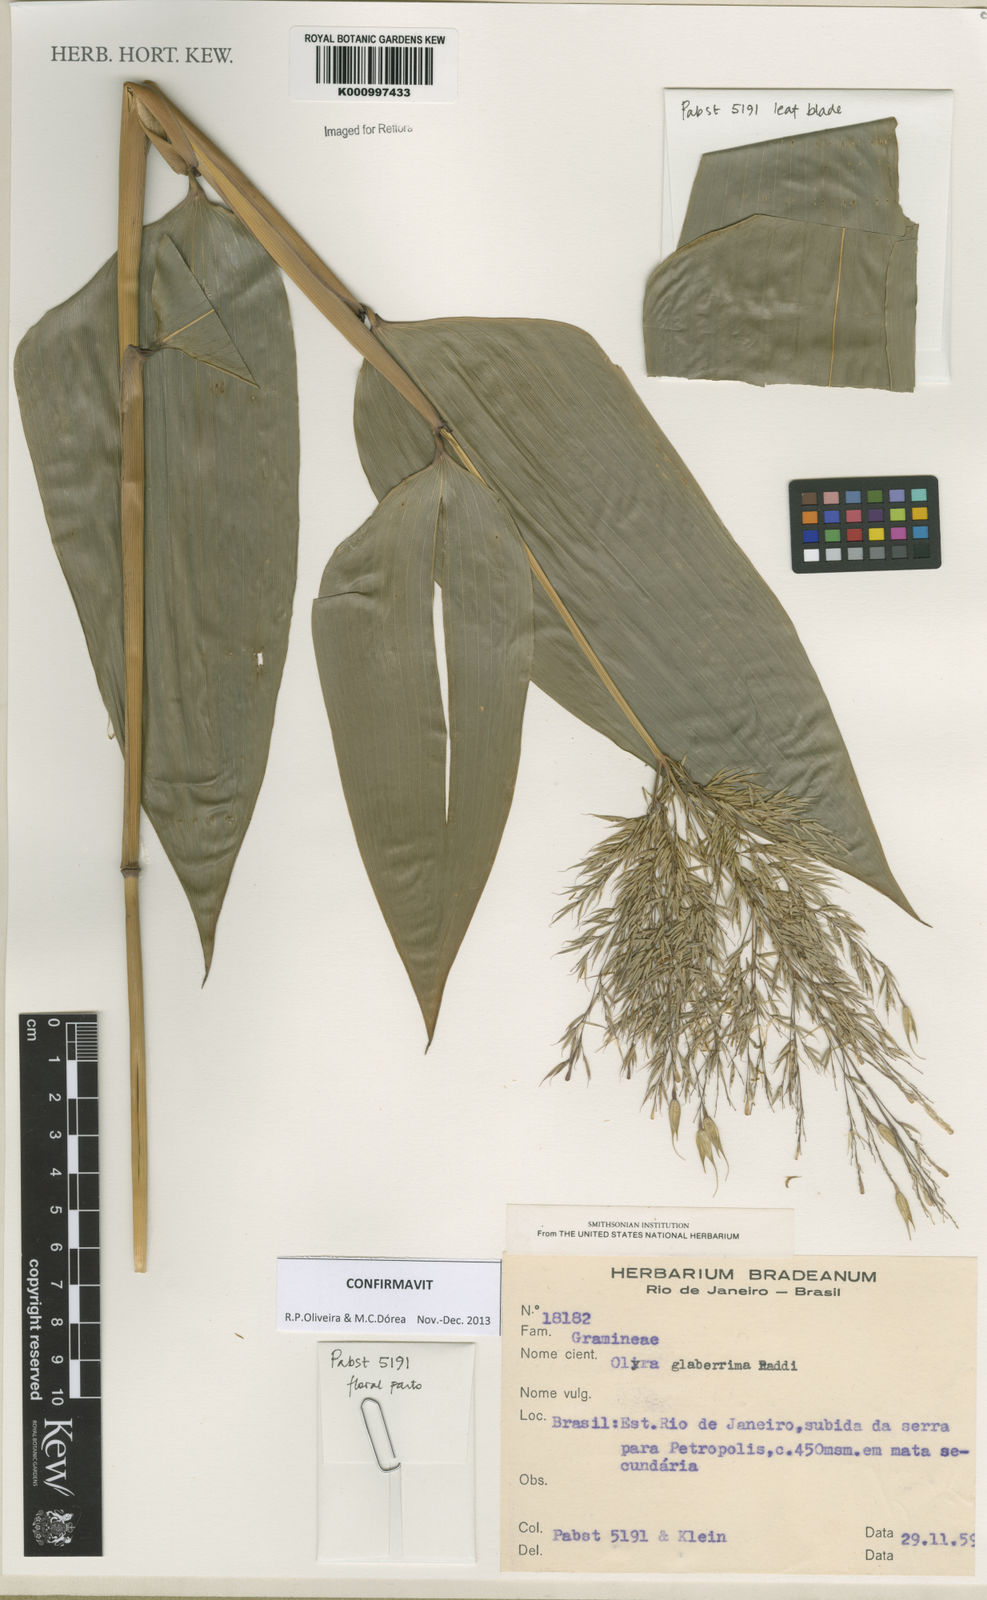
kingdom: Plantae
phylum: Tracheophyta
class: Liliopsida
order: Poales
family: Poaceae
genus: Olyra
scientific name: Olyra glaberrima
